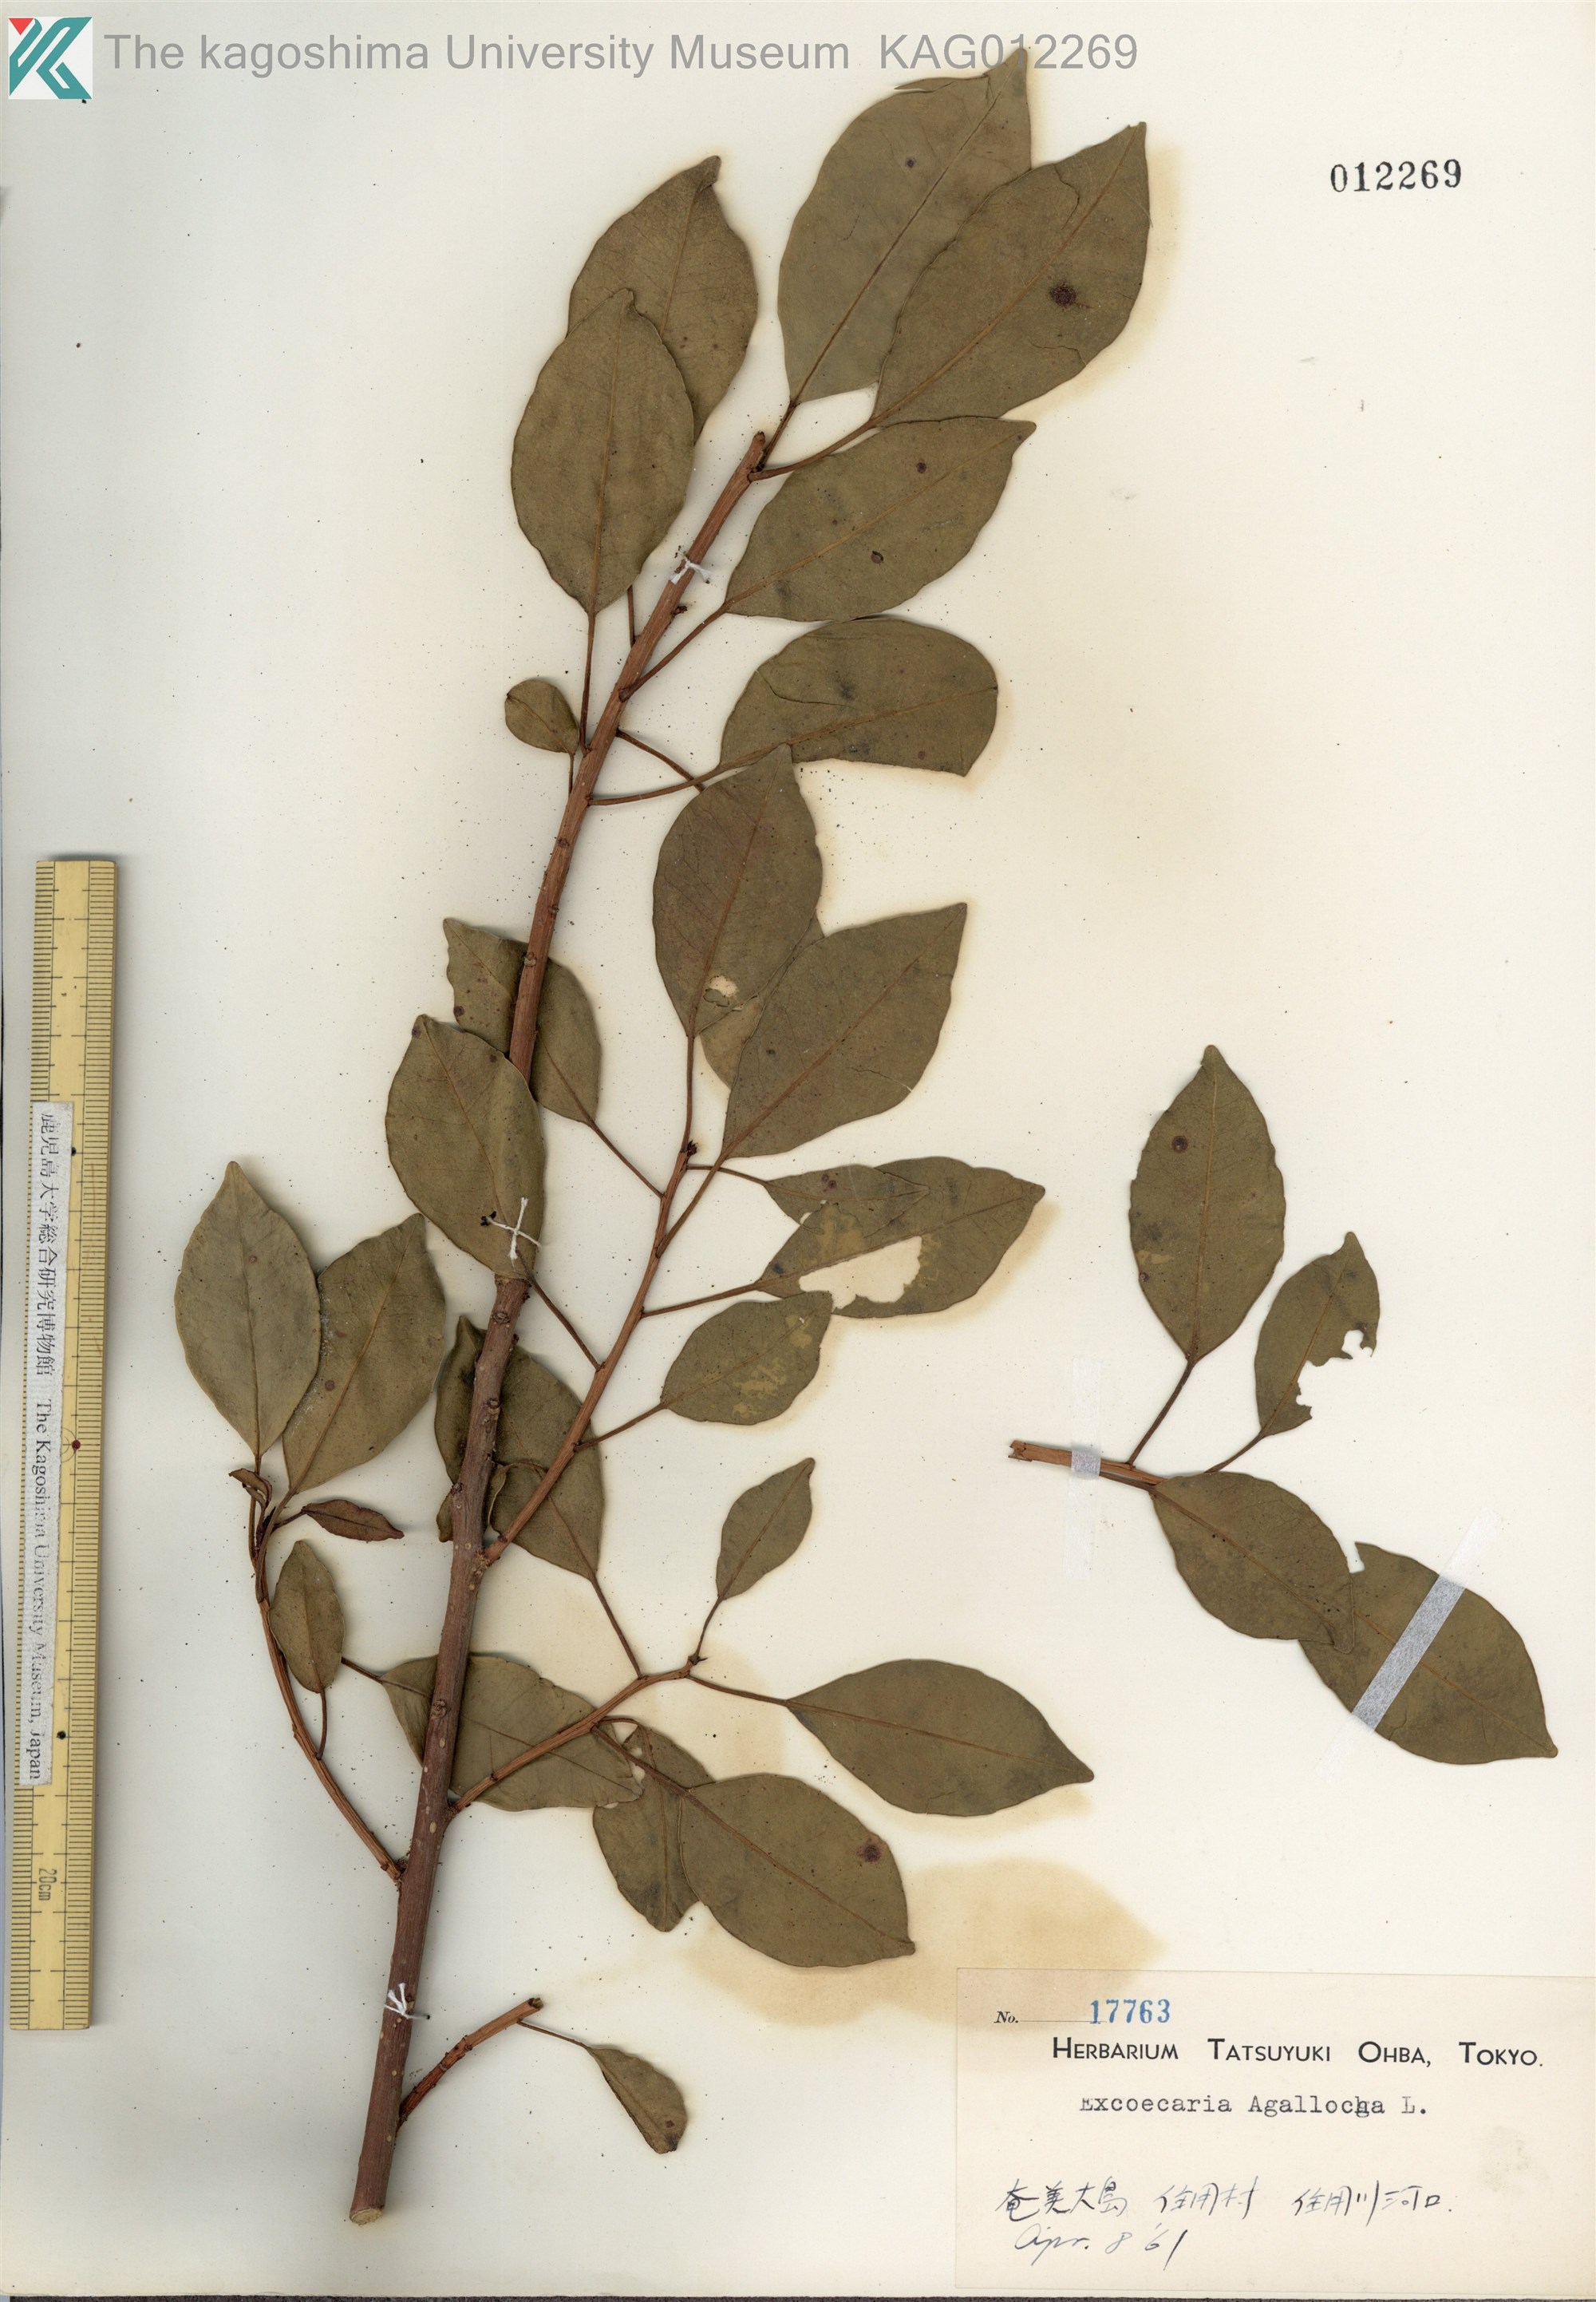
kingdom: Plantae
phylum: Tracheophyta
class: Magnoliopsida
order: Malpighiales
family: Euphorbiaceae
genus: Excoecaria
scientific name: Excoecaria agallocha
